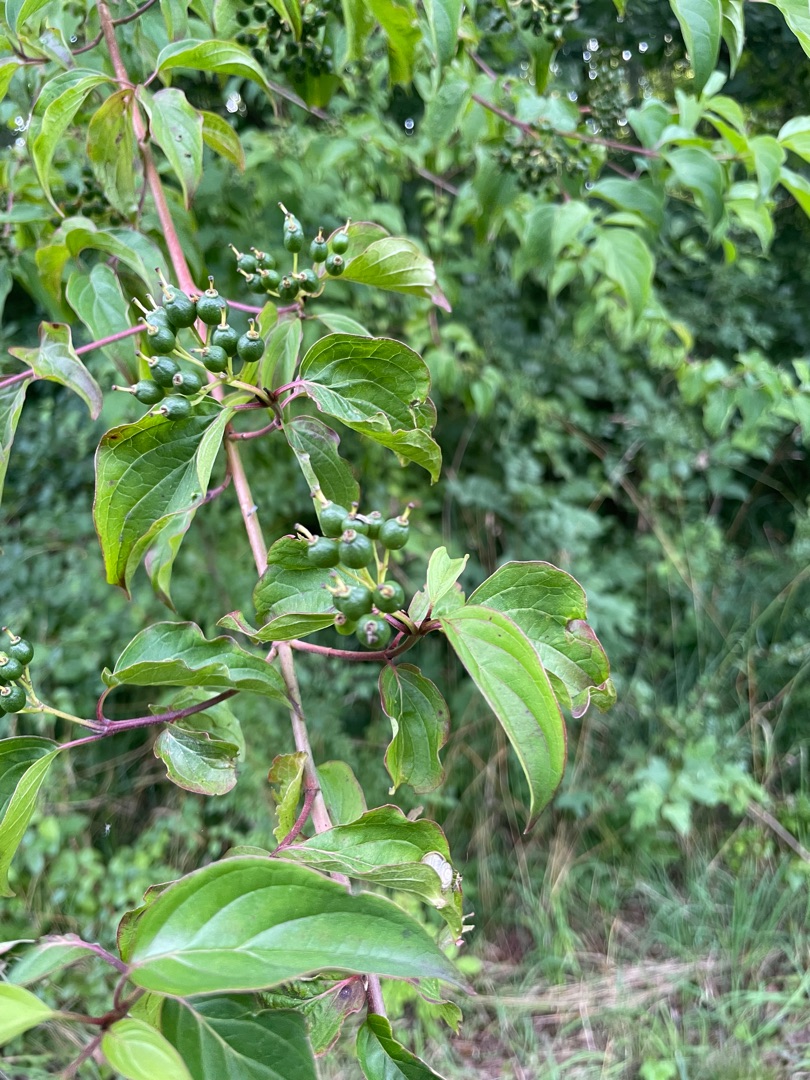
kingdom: Plantae
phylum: Tracheophyta
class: Magnoliopsida
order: Cornales
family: Cornaceae
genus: Cornus
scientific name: Cornus sanguinea
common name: Rød kornel
